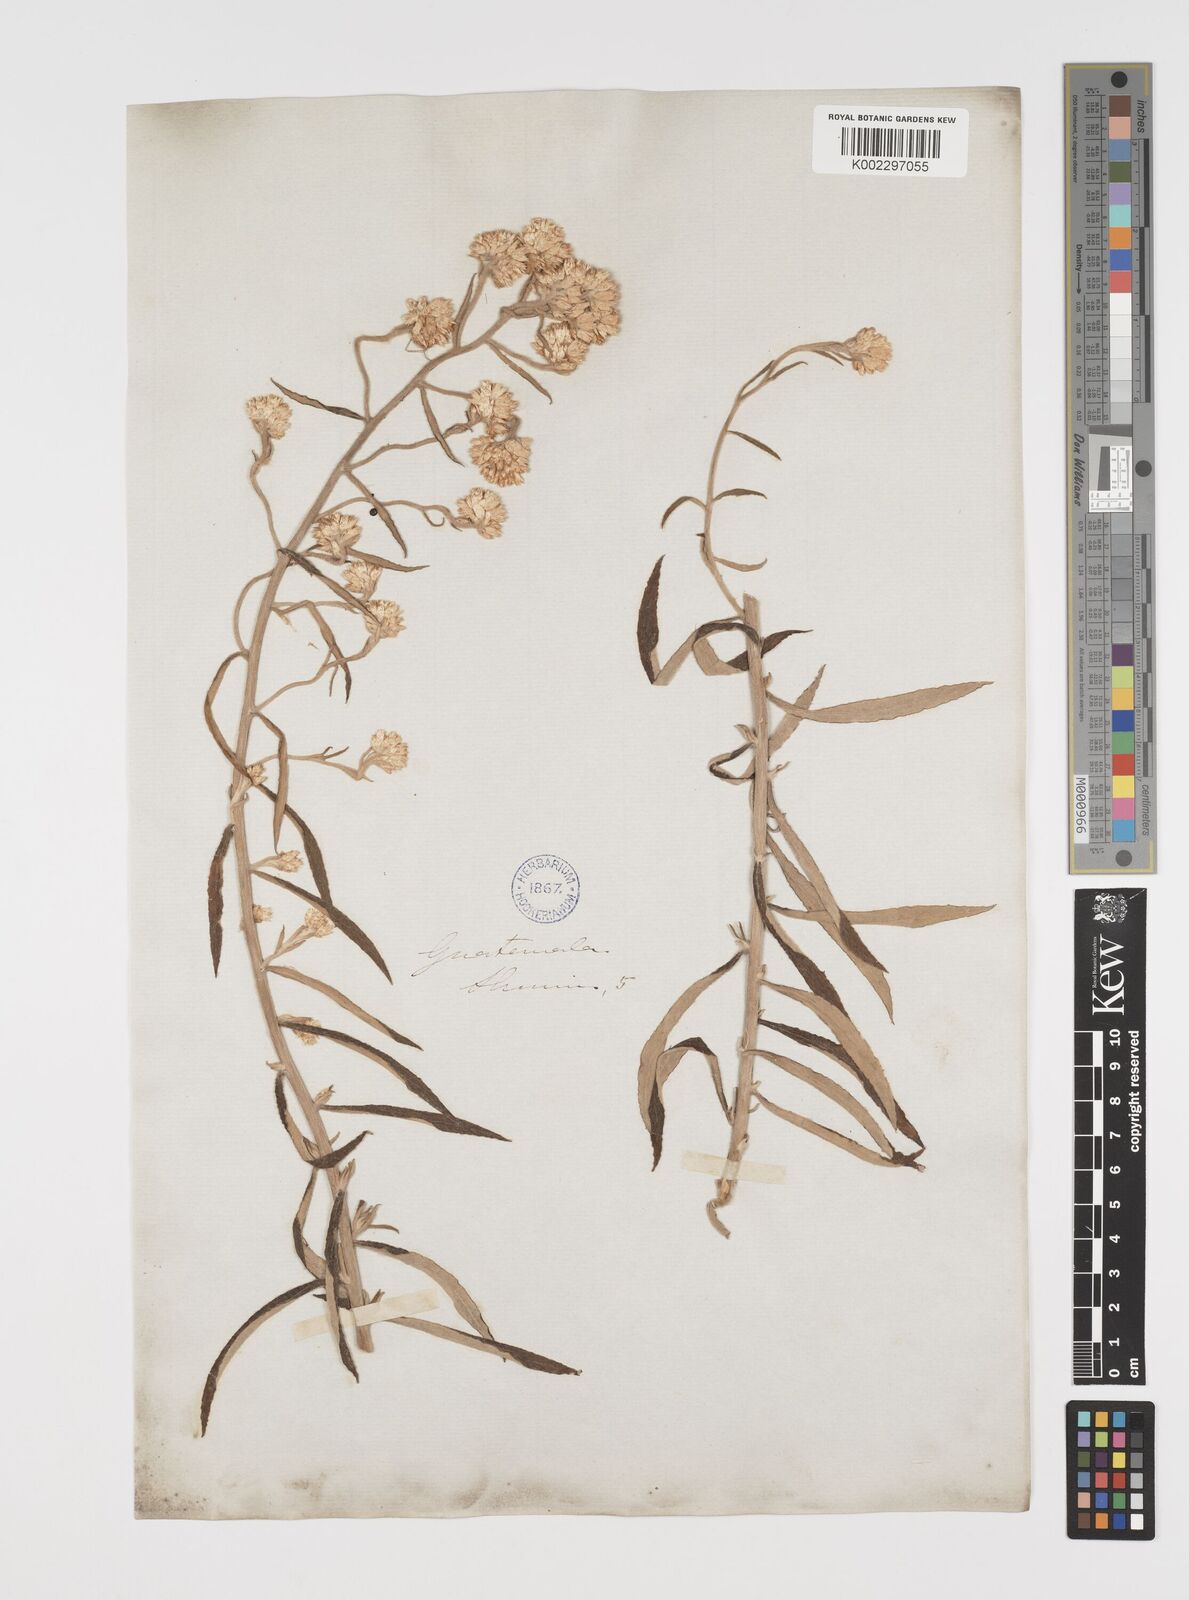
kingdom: Plantae
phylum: Tracheophyta
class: Magnoliopsida
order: Asterales
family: Asteraceae
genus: Pseudognaphalium
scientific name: Pseudognaphalium canescens
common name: Wright's rabbit-tobacco
